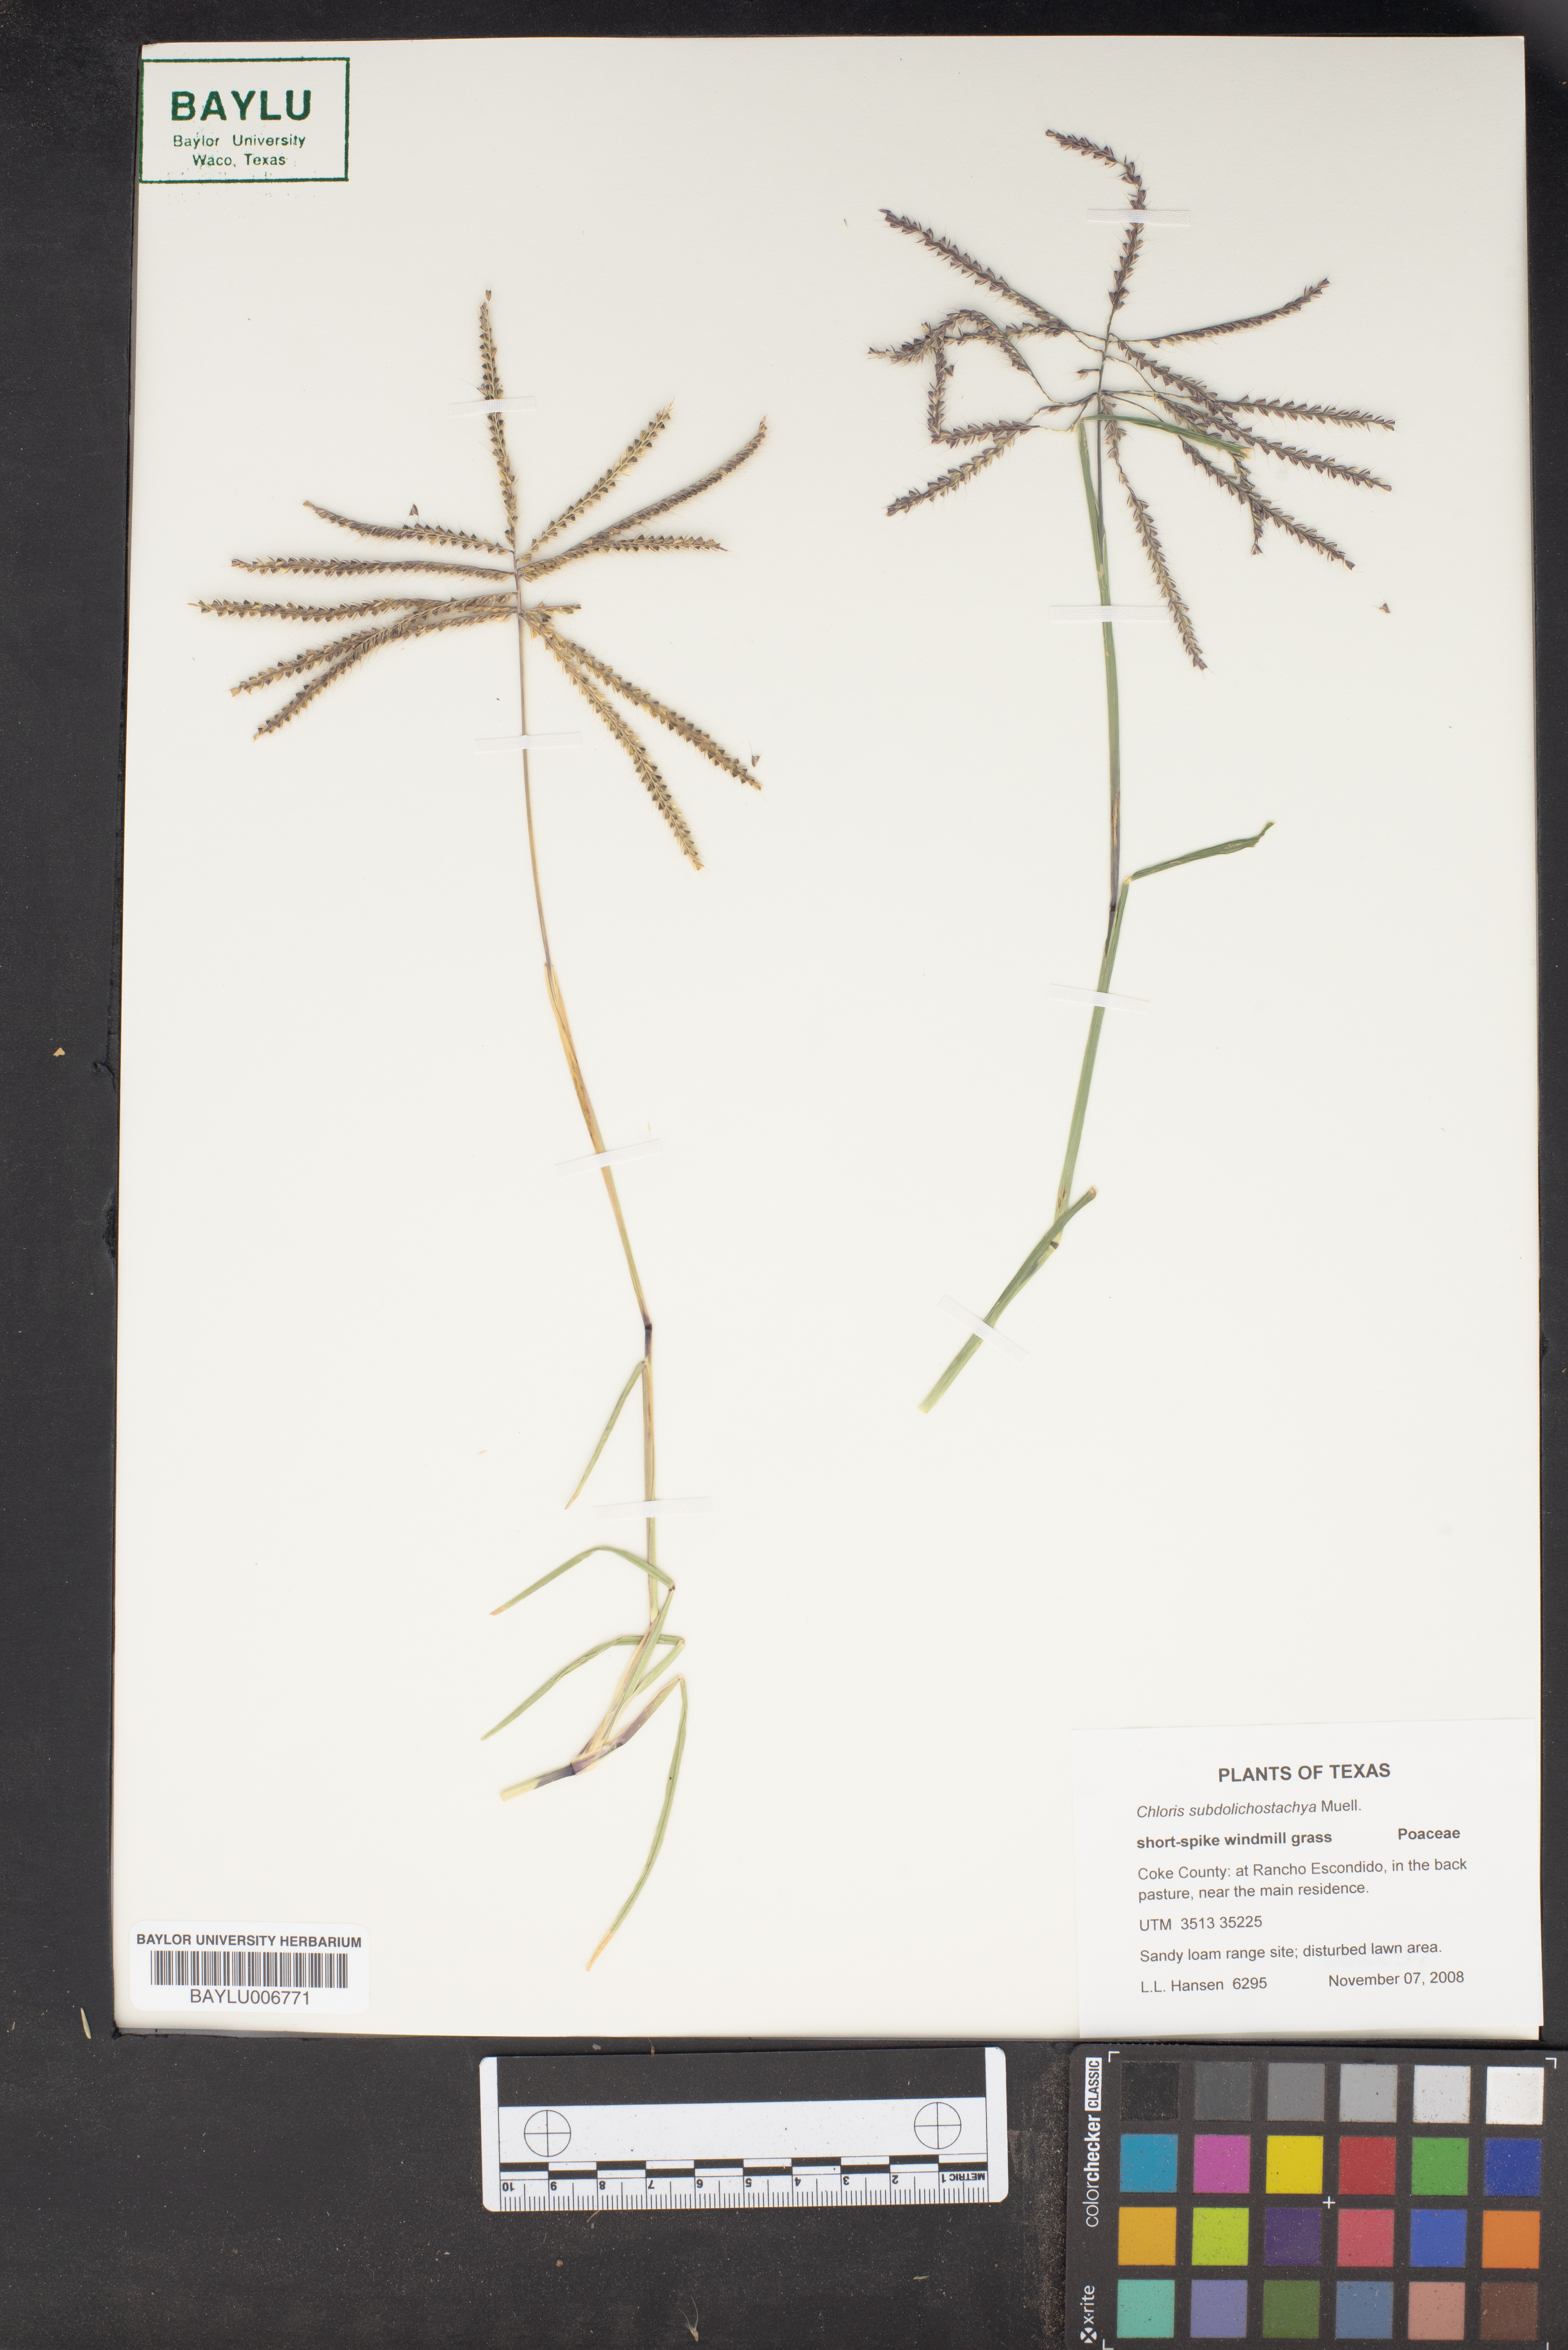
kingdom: Plantae
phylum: Tracheophyta
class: Liliopsida
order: Poales
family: Poaceae
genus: Chloris
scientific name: Chloris subdolichostachya
